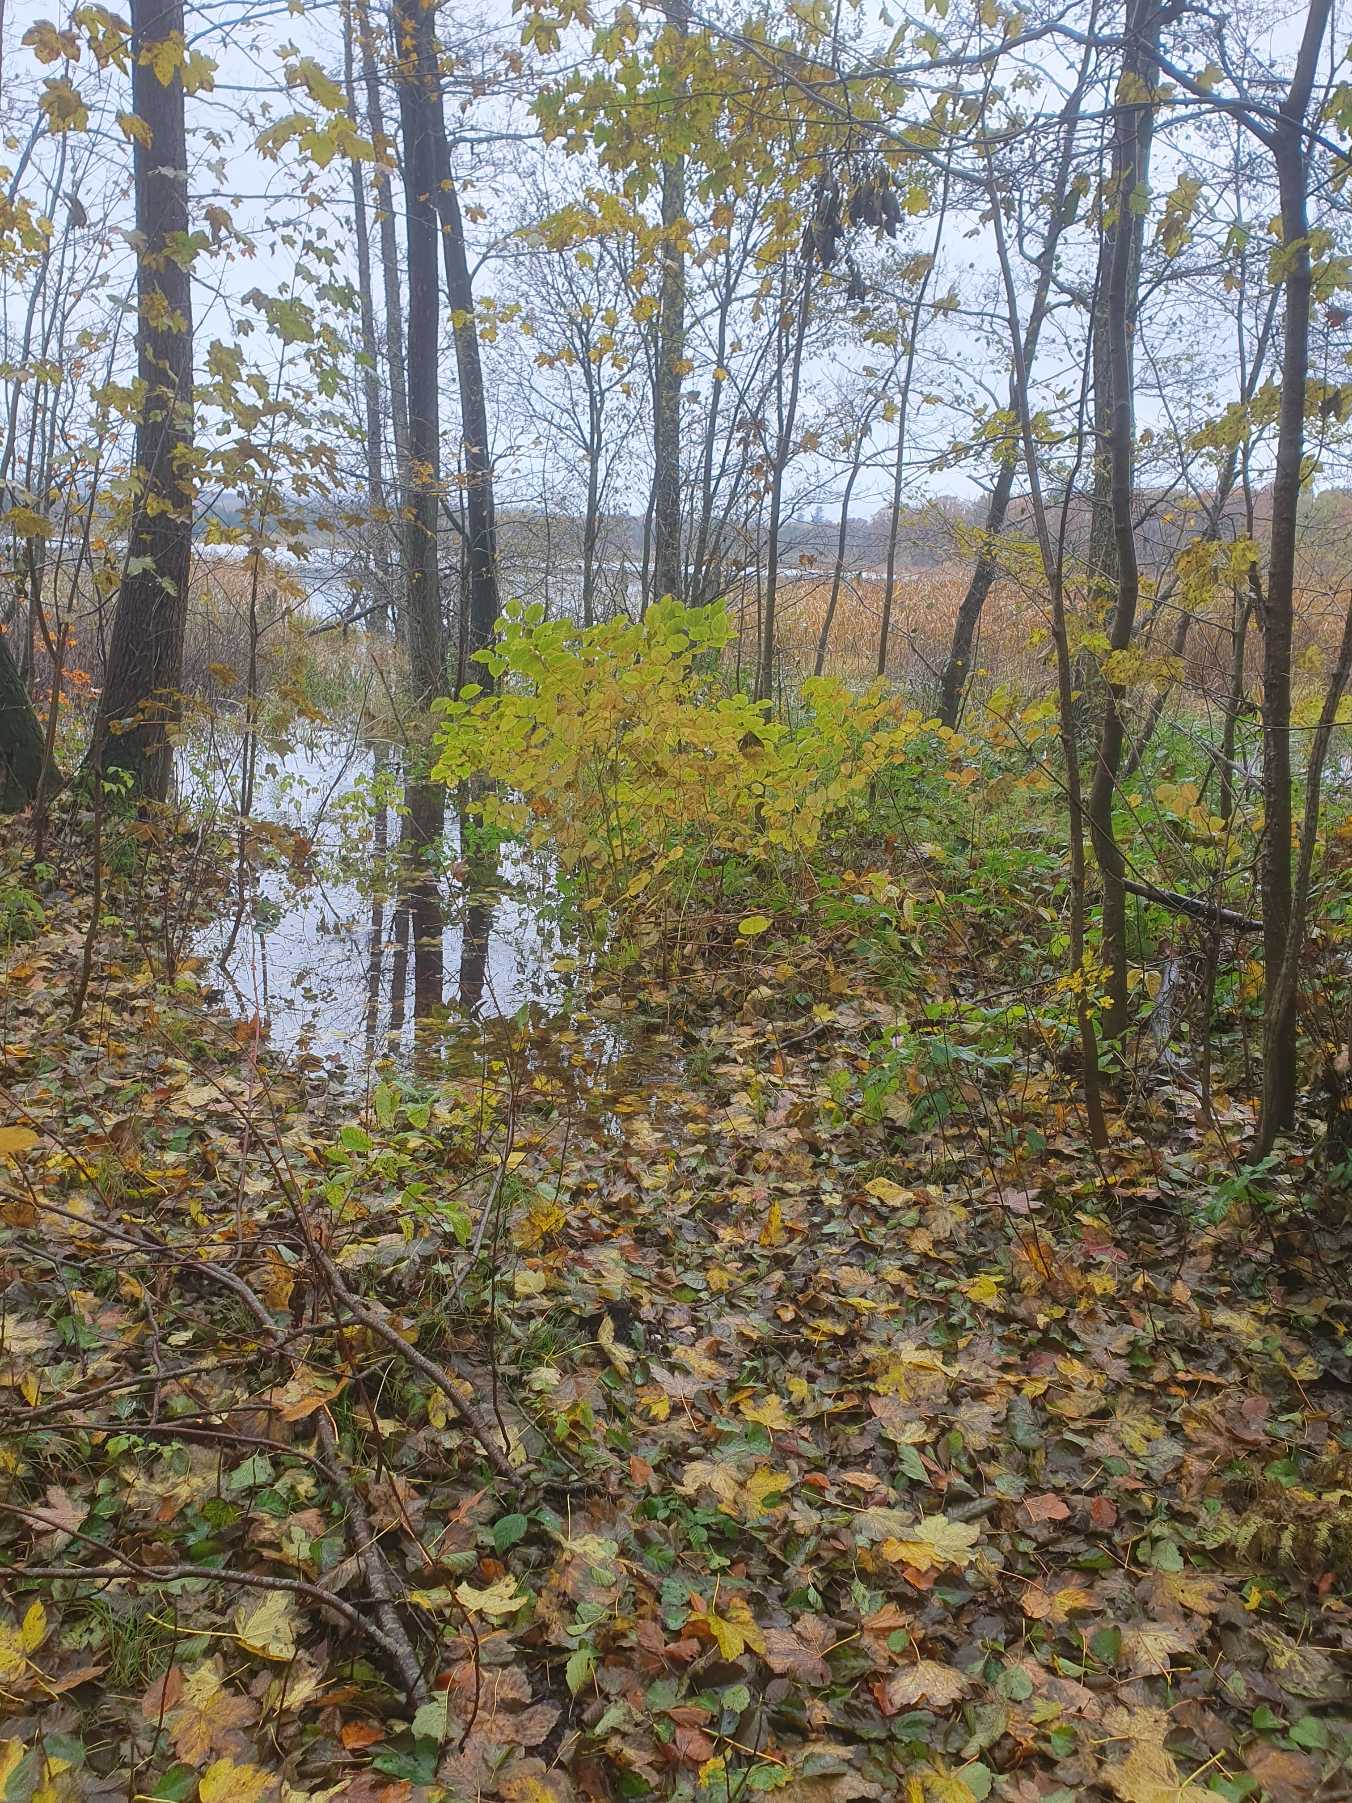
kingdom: Plantae
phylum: Tracheophyta
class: Magnoliopsida
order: Caryophyllales
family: Polygonaceae
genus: Reynoutria
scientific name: Reynoutria japonica
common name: Japan-pileurt
